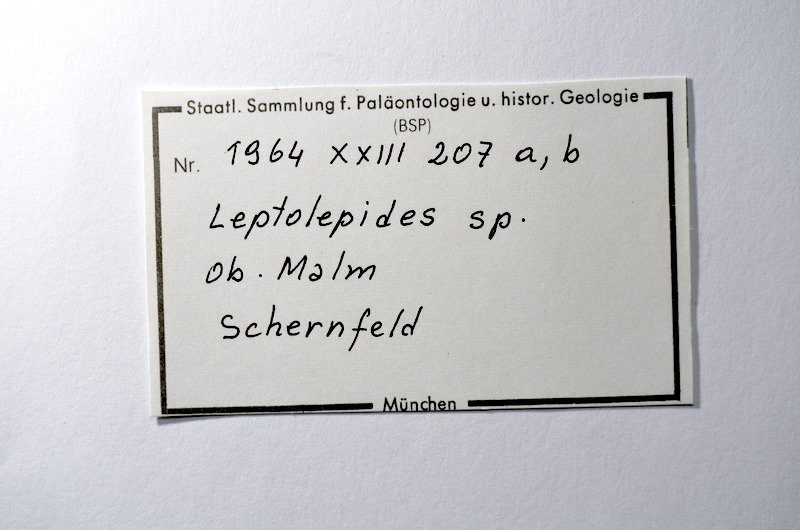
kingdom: Animalia
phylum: Chordata
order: Salmoniformes
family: Orthogonikleithridae
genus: Leptolepides
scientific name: Leptolepides
